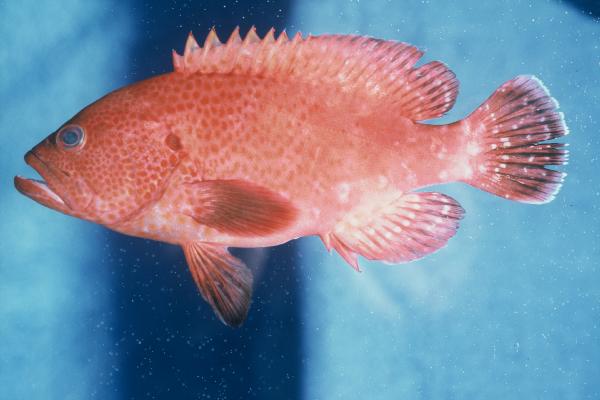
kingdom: Animalia
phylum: Chordata
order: Perciformes
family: Serranidae
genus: Cephalopholis
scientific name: Cephalopholis sonnerati
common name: Tomato hind
